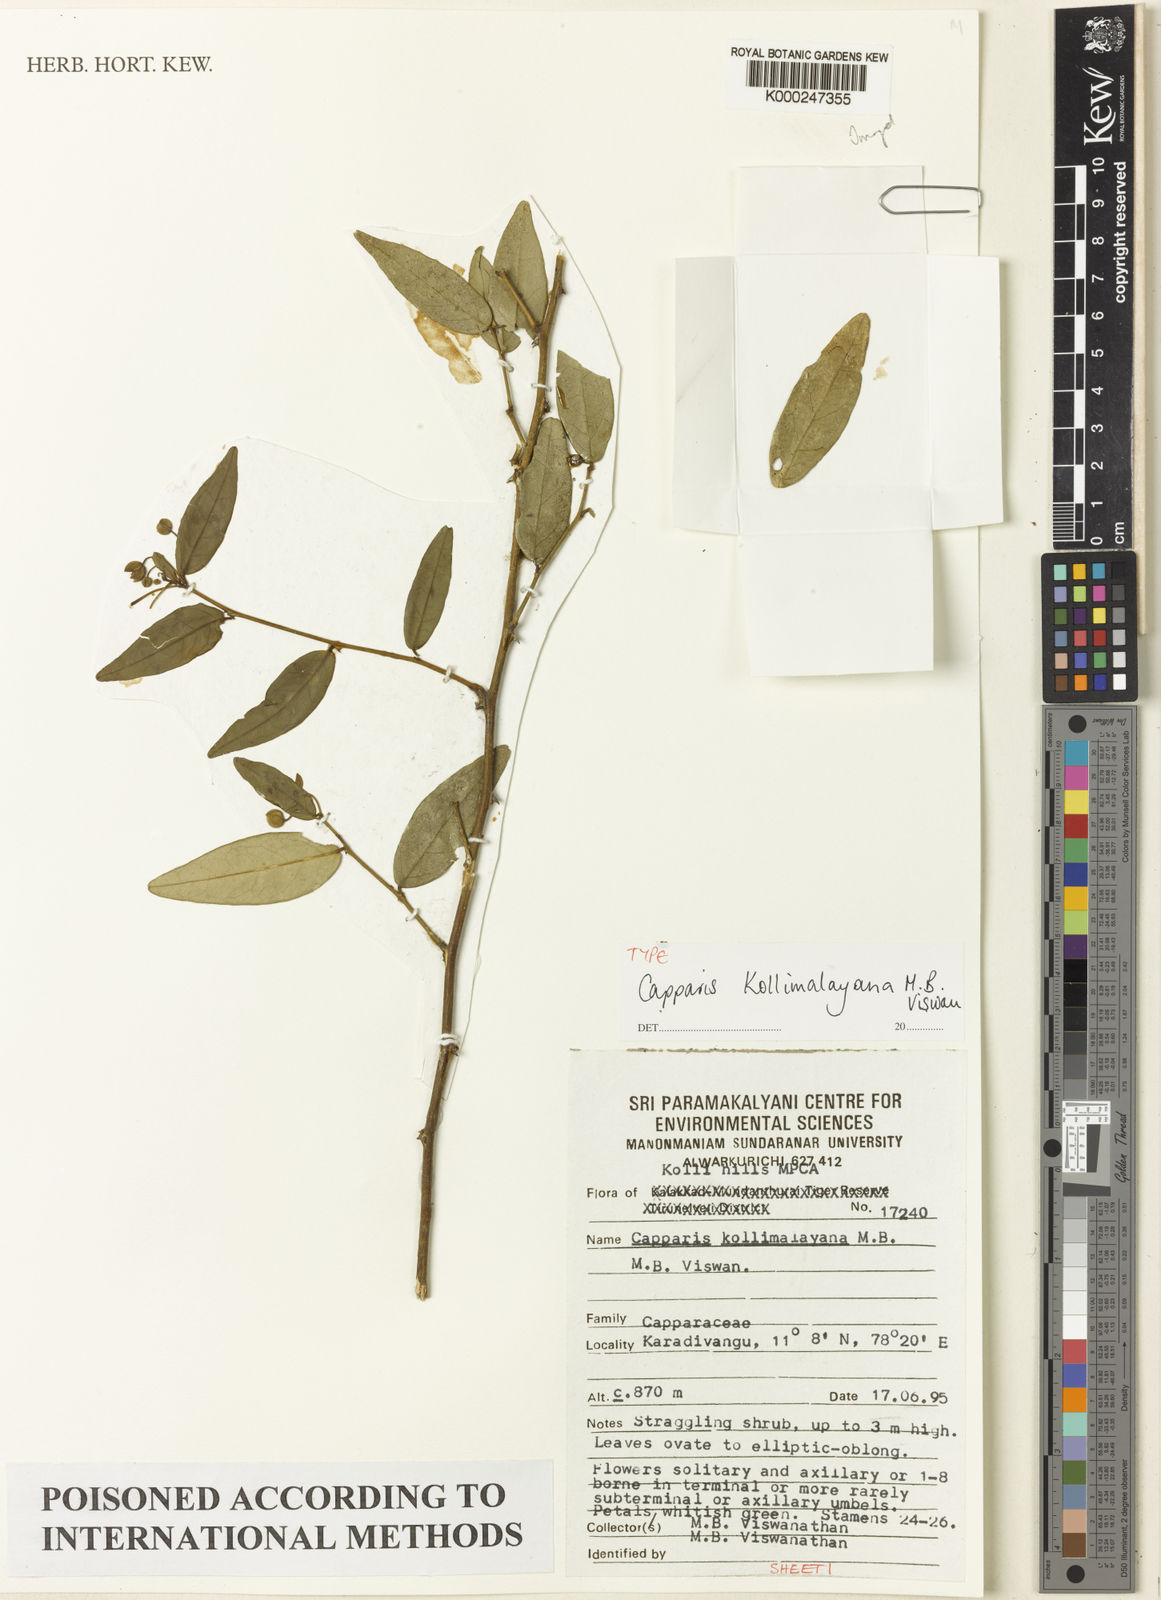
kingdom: Plantae
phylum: Tracheophyta
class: Magnoliopsida
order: Brassicales
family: Capparaceae
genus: Capparis
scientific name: Capparis kollimalayana
